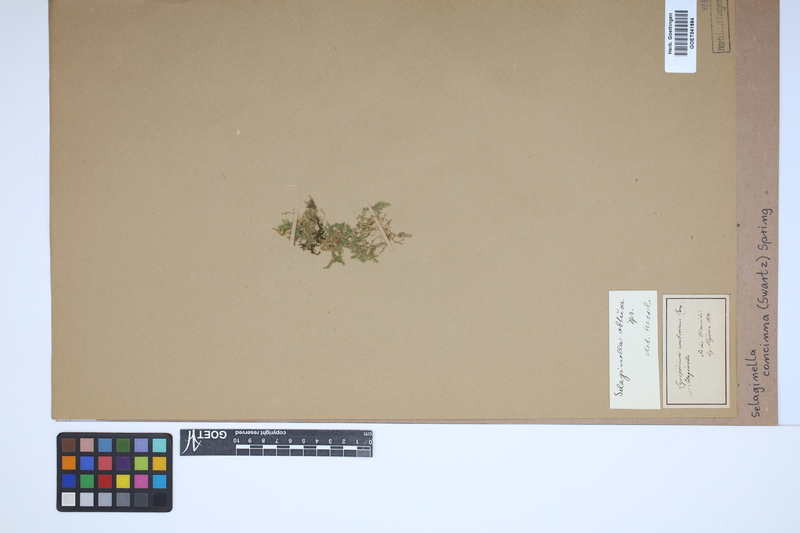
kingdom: Plantae
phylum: Tracheophyta
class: Lycopodiopsida
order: Selaginellales
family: Selaginellaceae
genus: Selaginella
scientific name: Selaginella concinna
